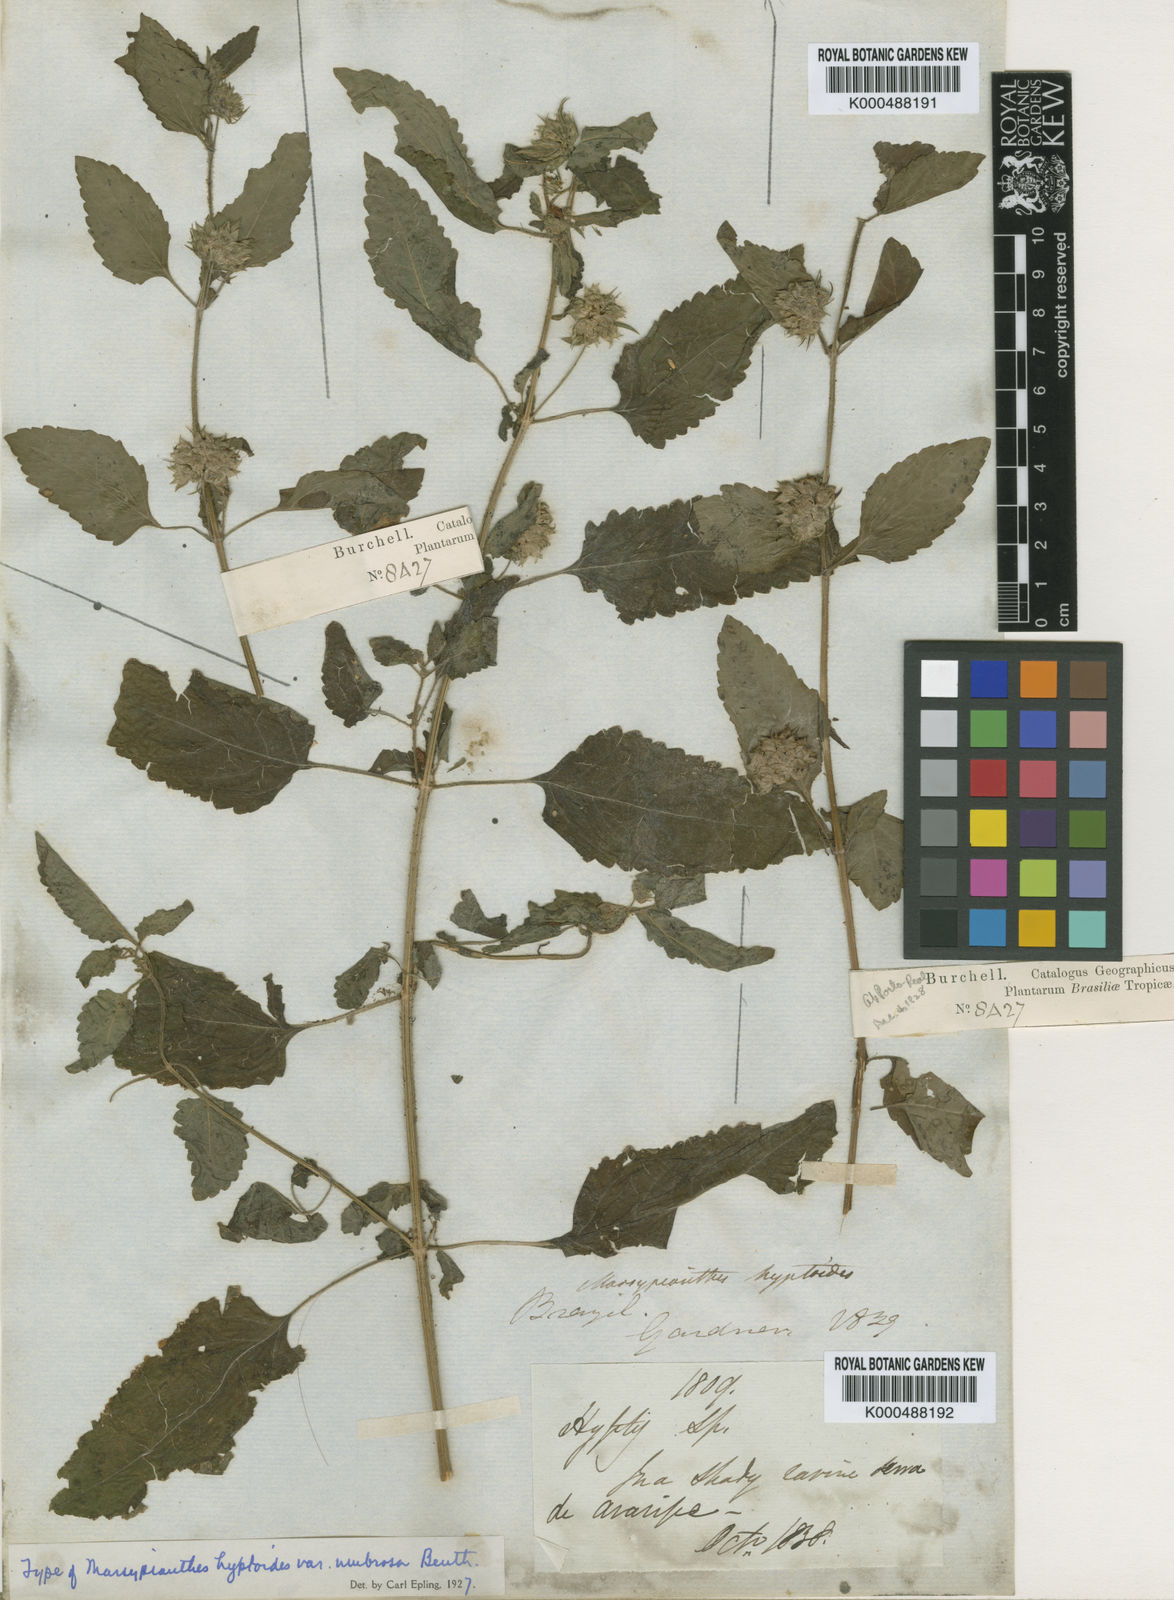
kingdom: Plantae
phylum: Tracheophyta
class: Magnoliopsida
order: Lamiales
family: Lamiaceae
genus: Marsypianthes
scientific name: Marsypianthes chamaedrys
